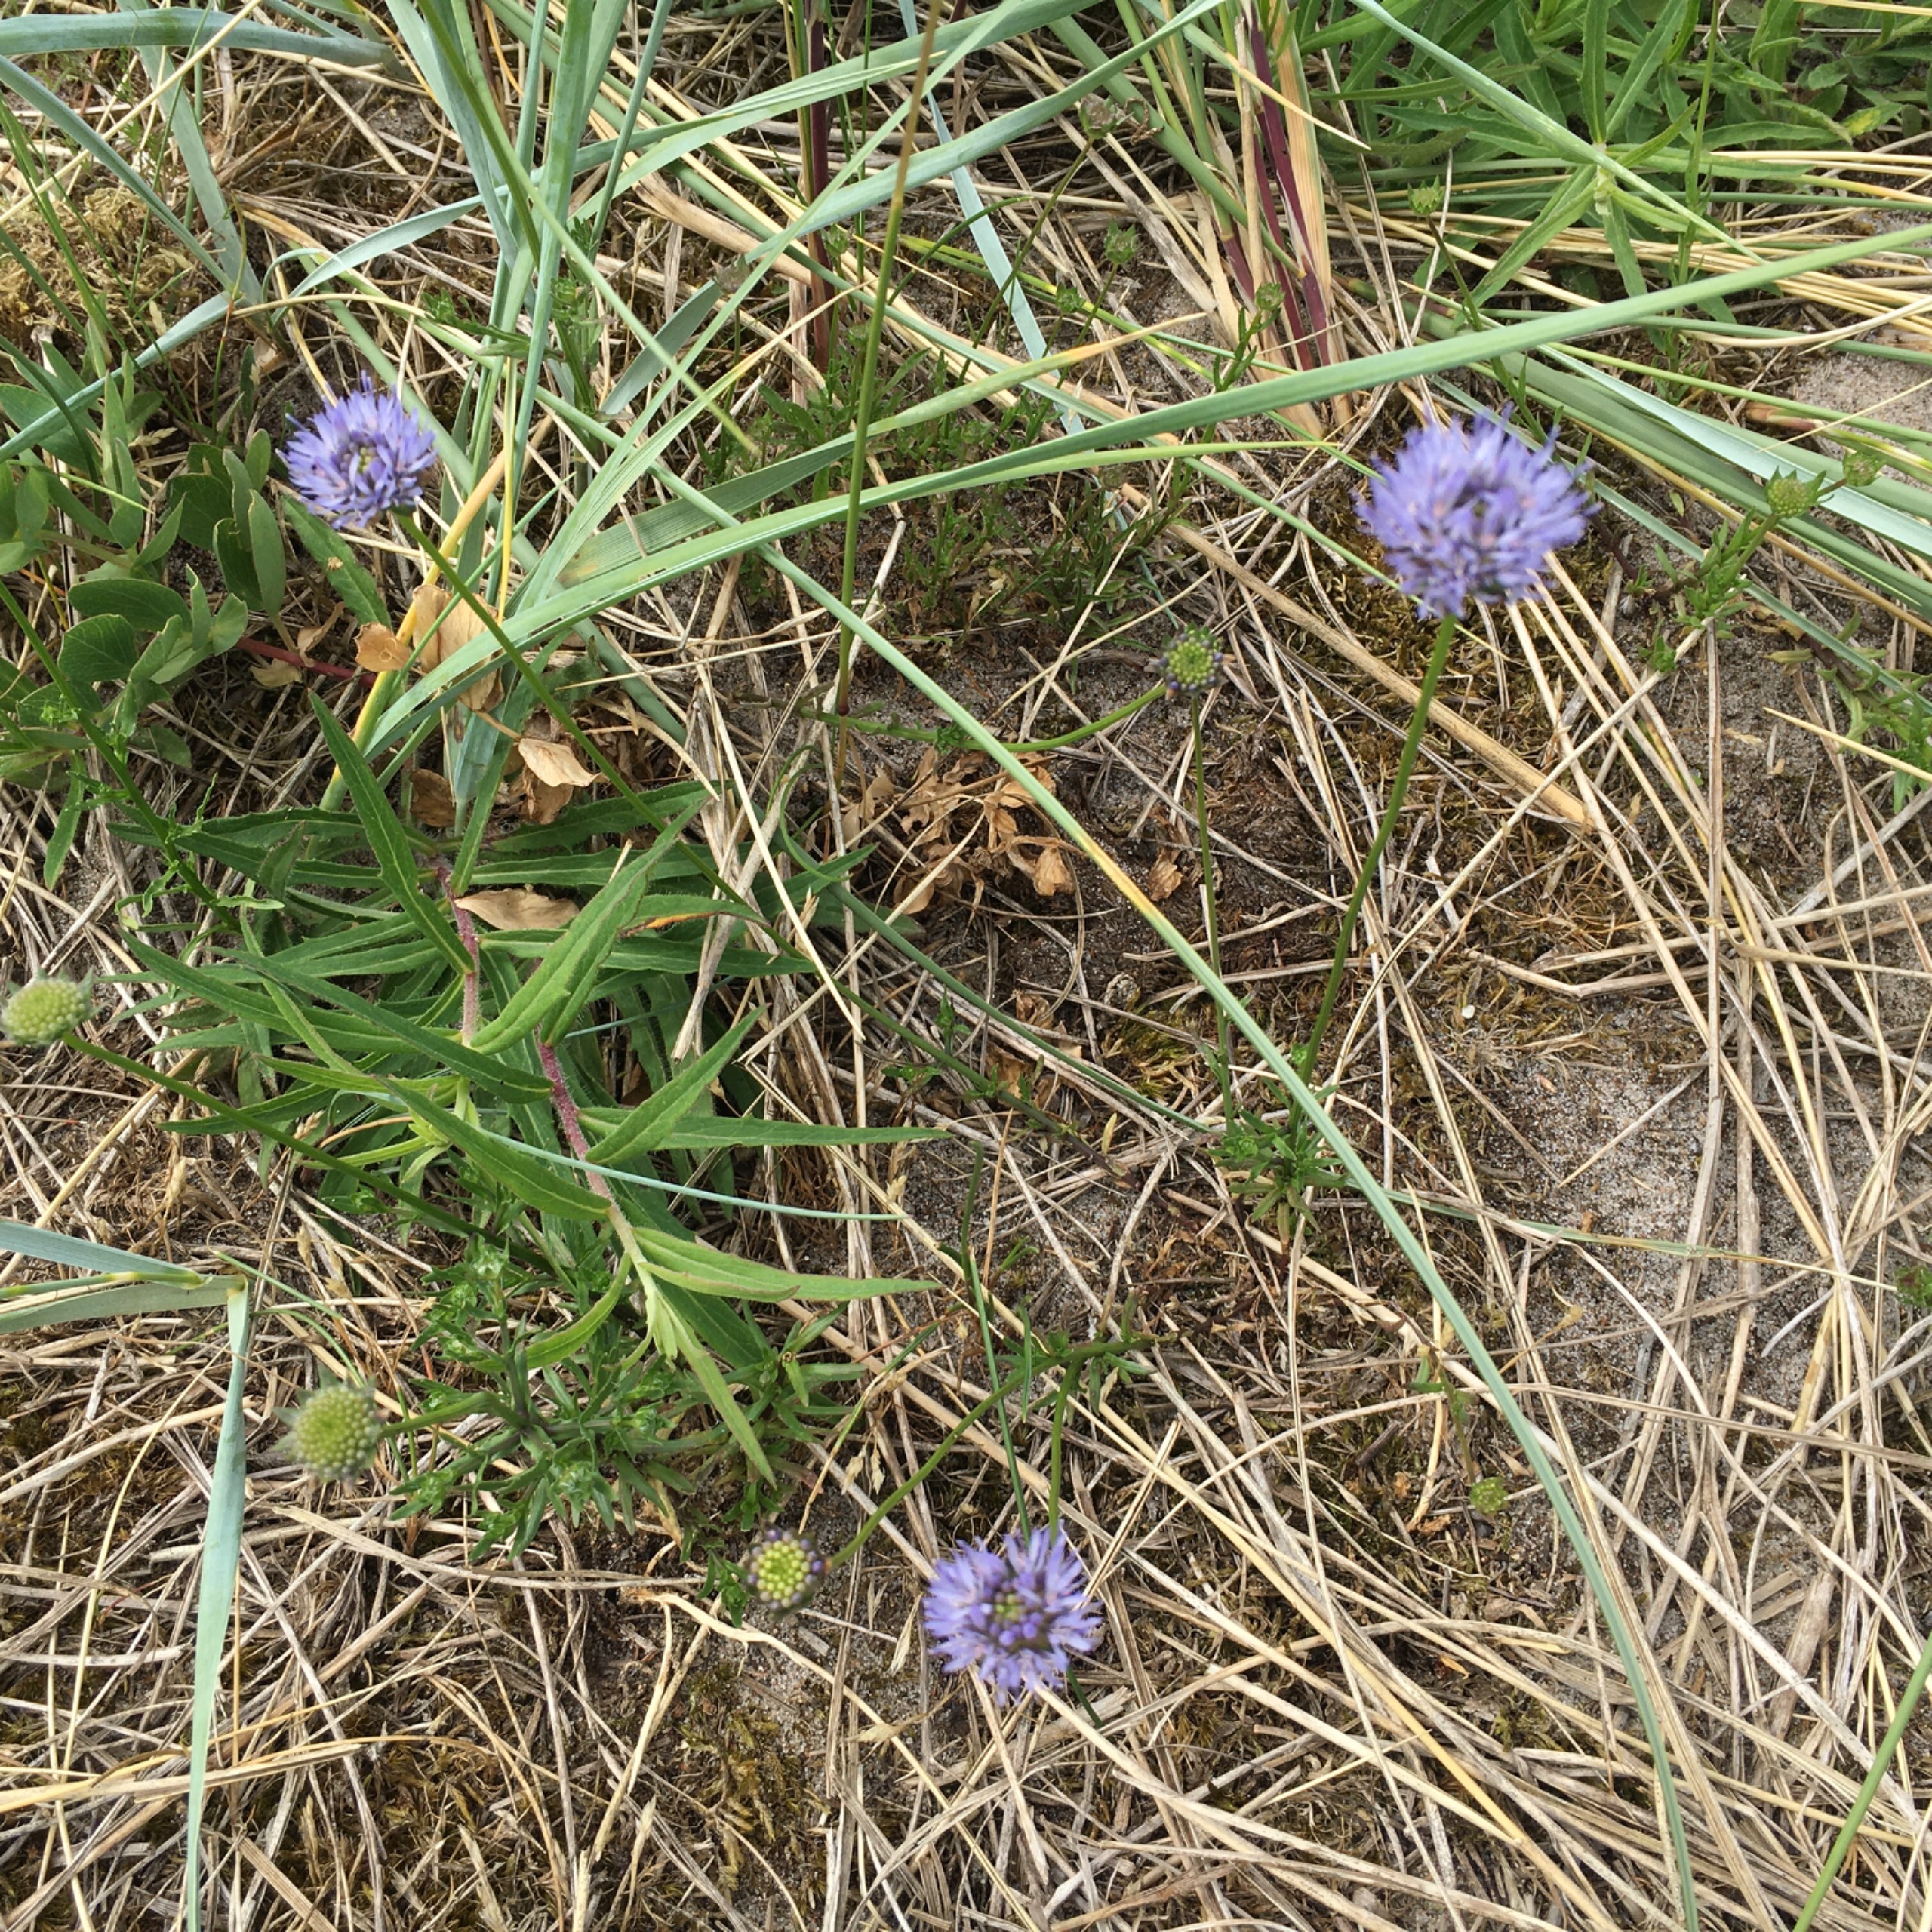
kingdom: Plantae
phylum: Tracheophyta
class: Magnoliopsida
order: Asterales
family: Campanulaceae
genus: Jasione
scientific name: Jasione montana
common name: Blåmunke
